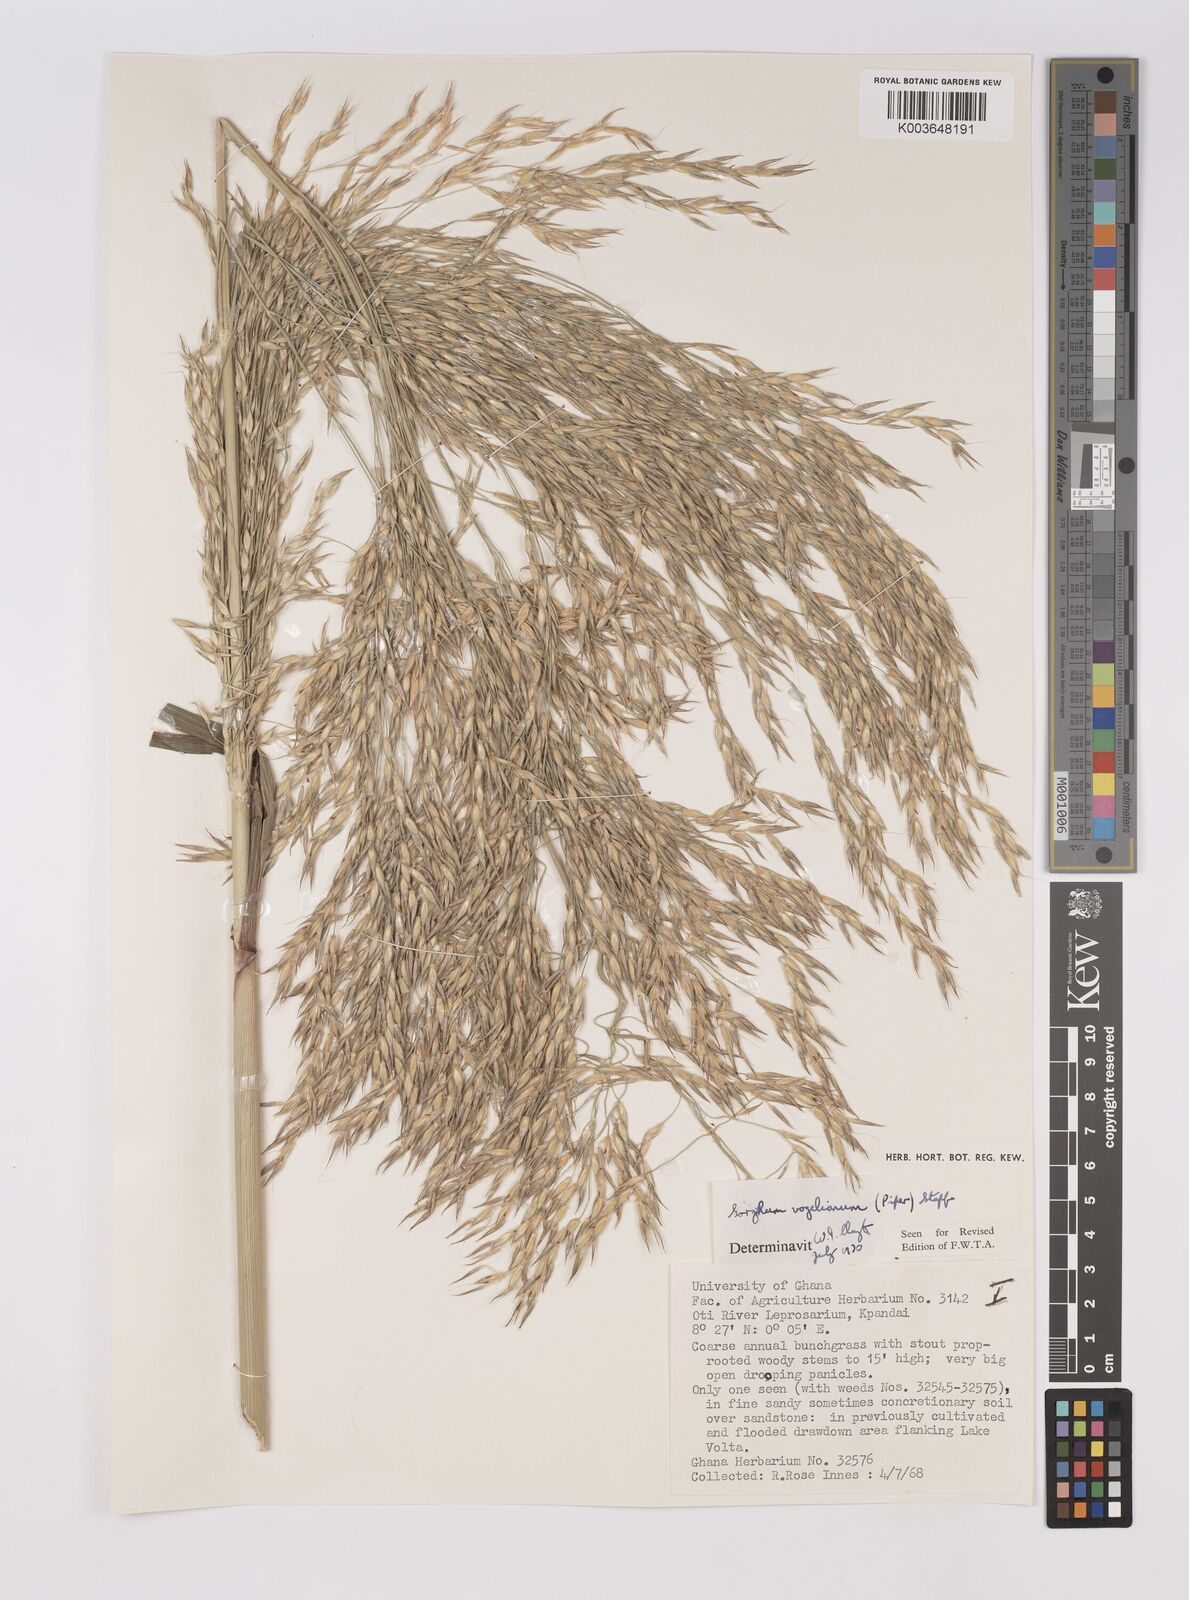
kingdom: Plantae
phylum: Tracheophyta
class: Liliopsida
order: Poales
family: Poaceae
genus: Sorghum
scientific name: Sorghum arundinaceum
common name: Sorghum
